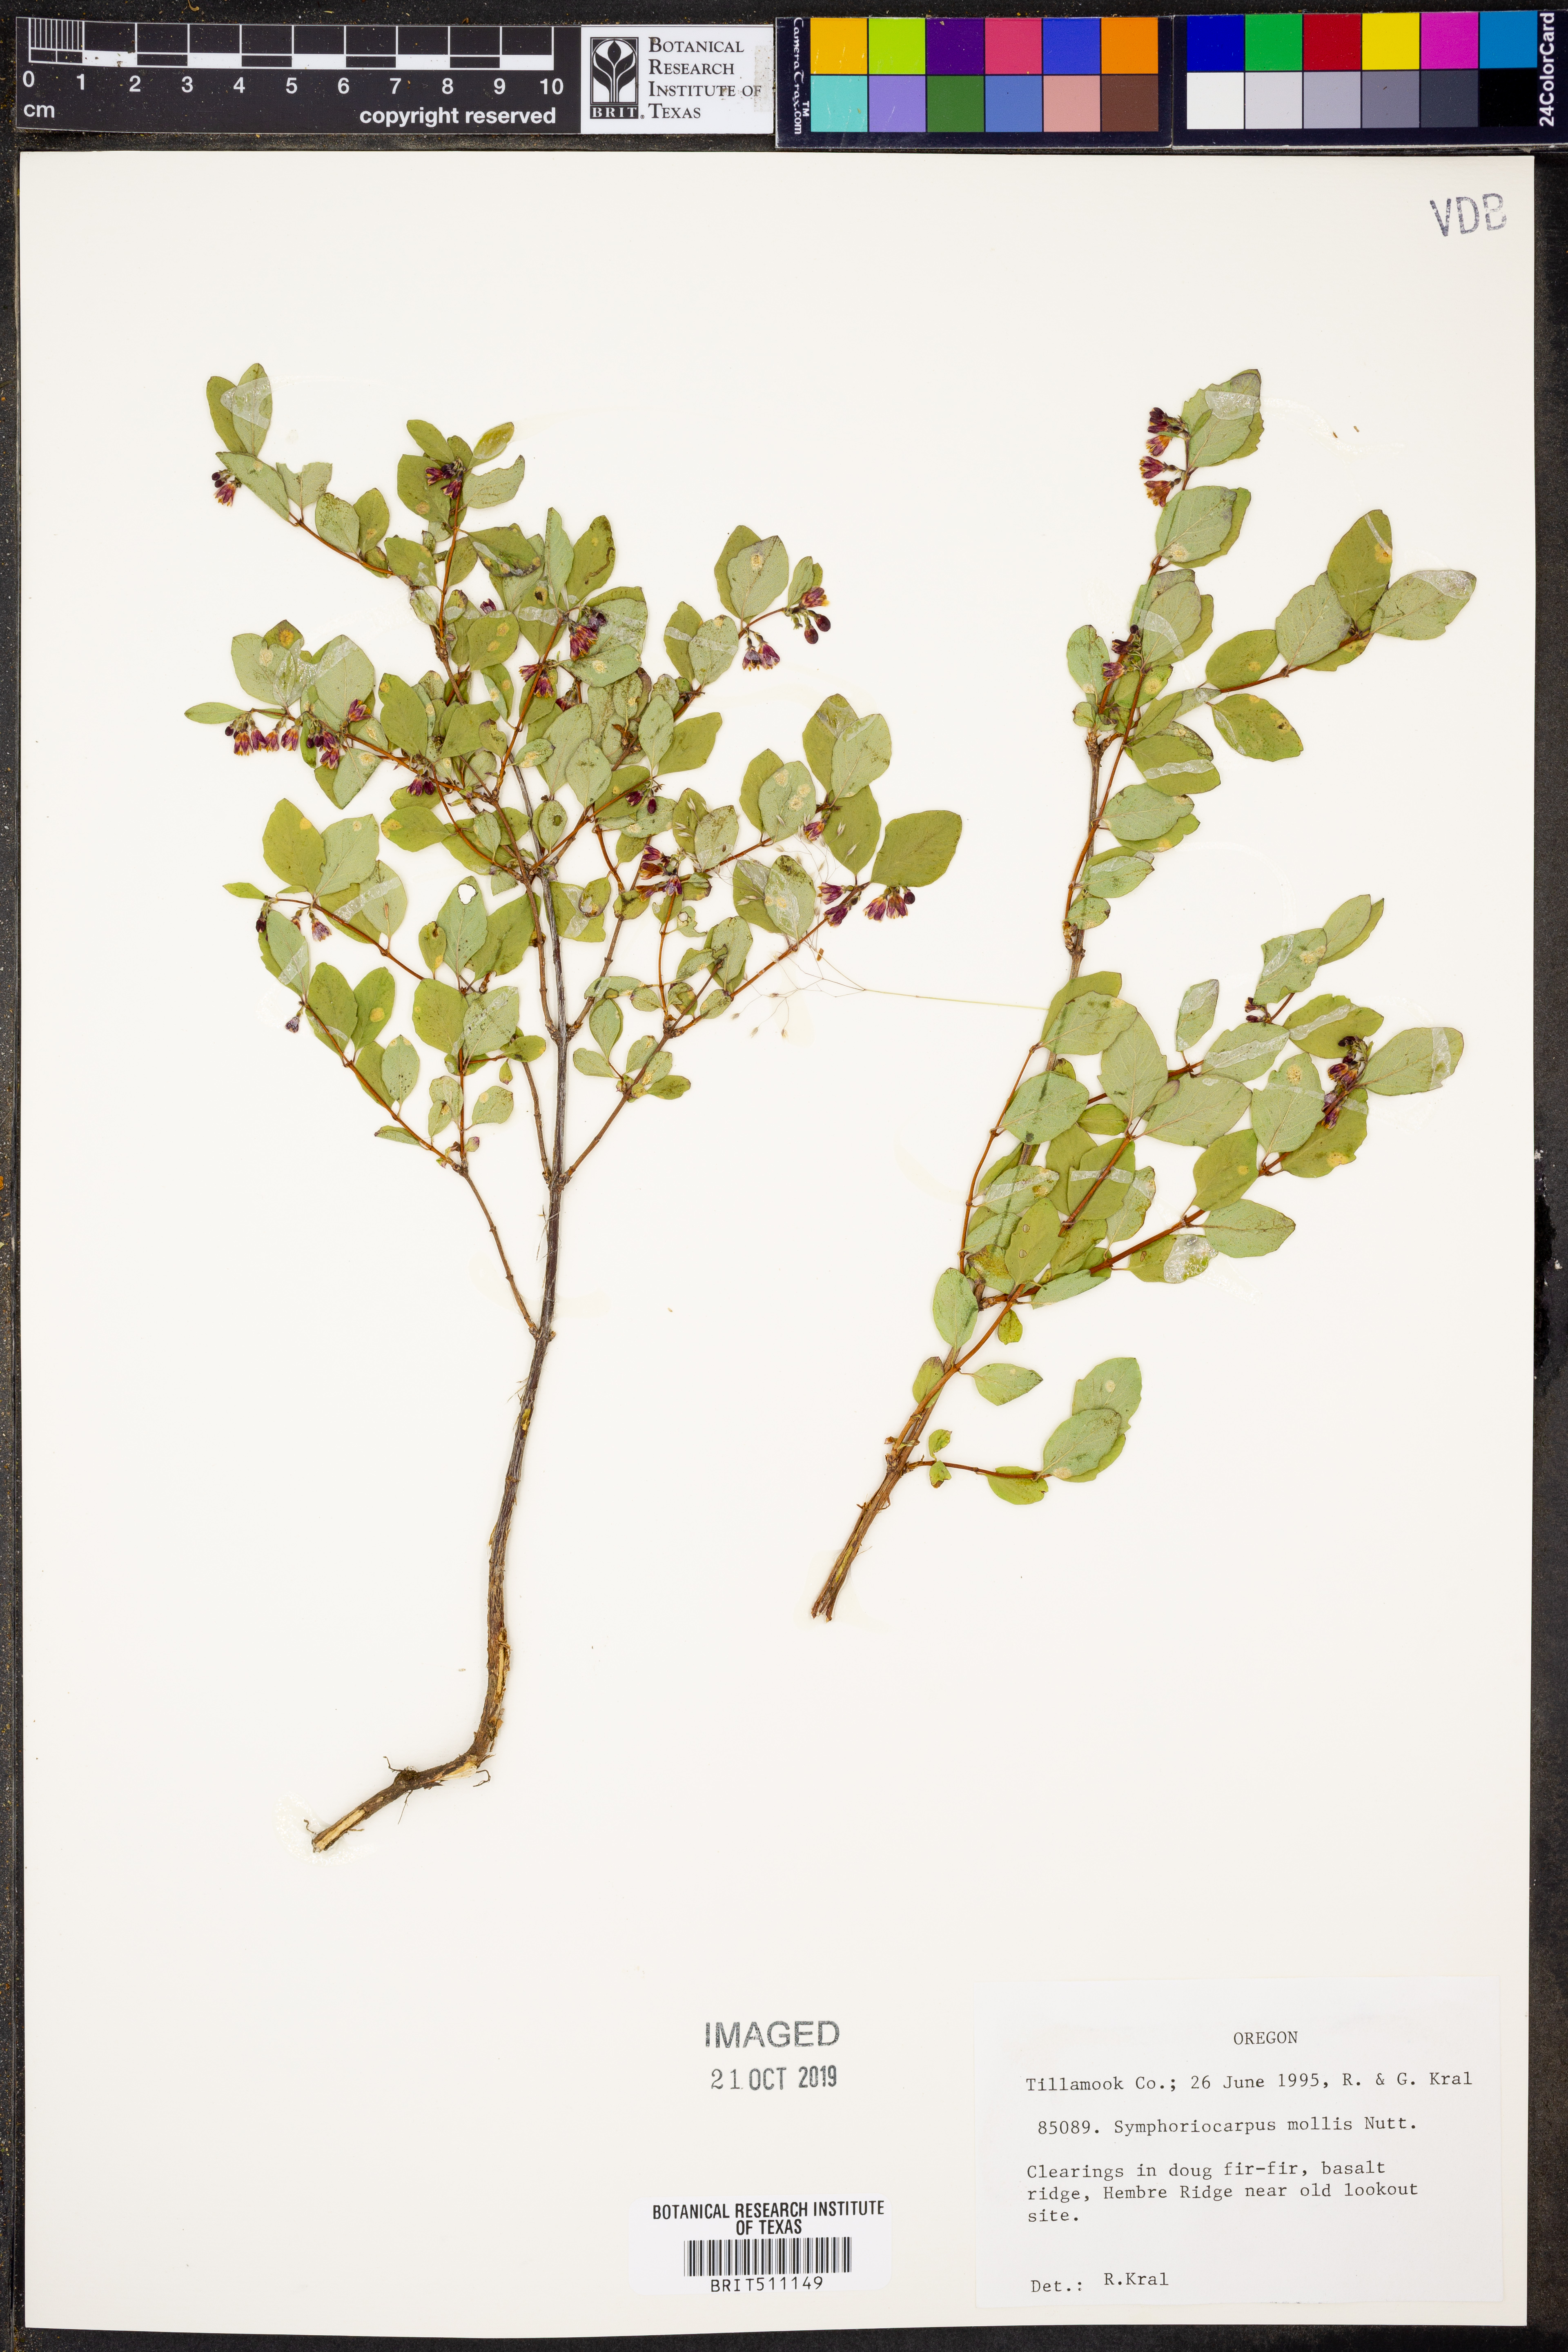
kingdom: Plantae
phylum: Tracheophyta
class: Magnoliopsida
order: Dipsacales
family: Caprifoliaceae
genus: Symphoricarpos
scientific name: Symphoricarpos mollis
